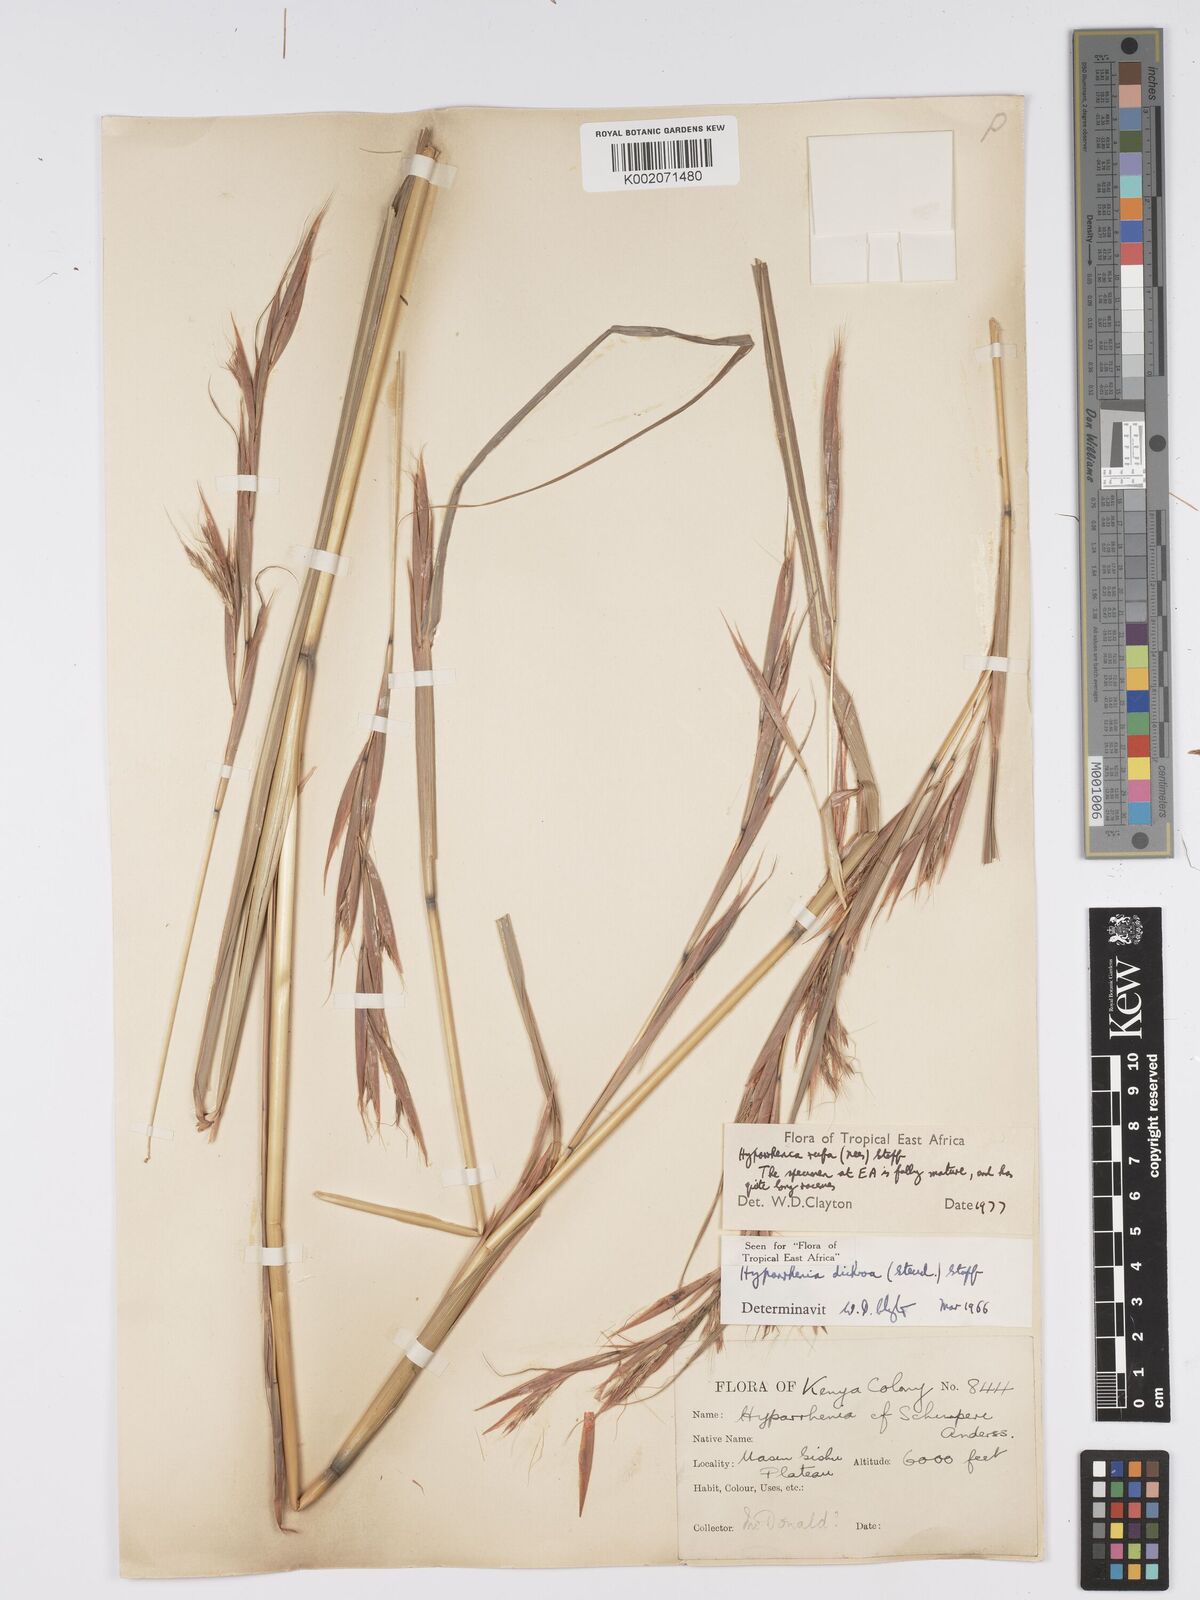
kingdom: Plantae
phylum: Tracheophyta
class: Liliopsida
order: Poales
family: Poaceae
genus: Hyparrhenia
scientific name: Hyparrhenia rufa
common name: Jaraguagrass
